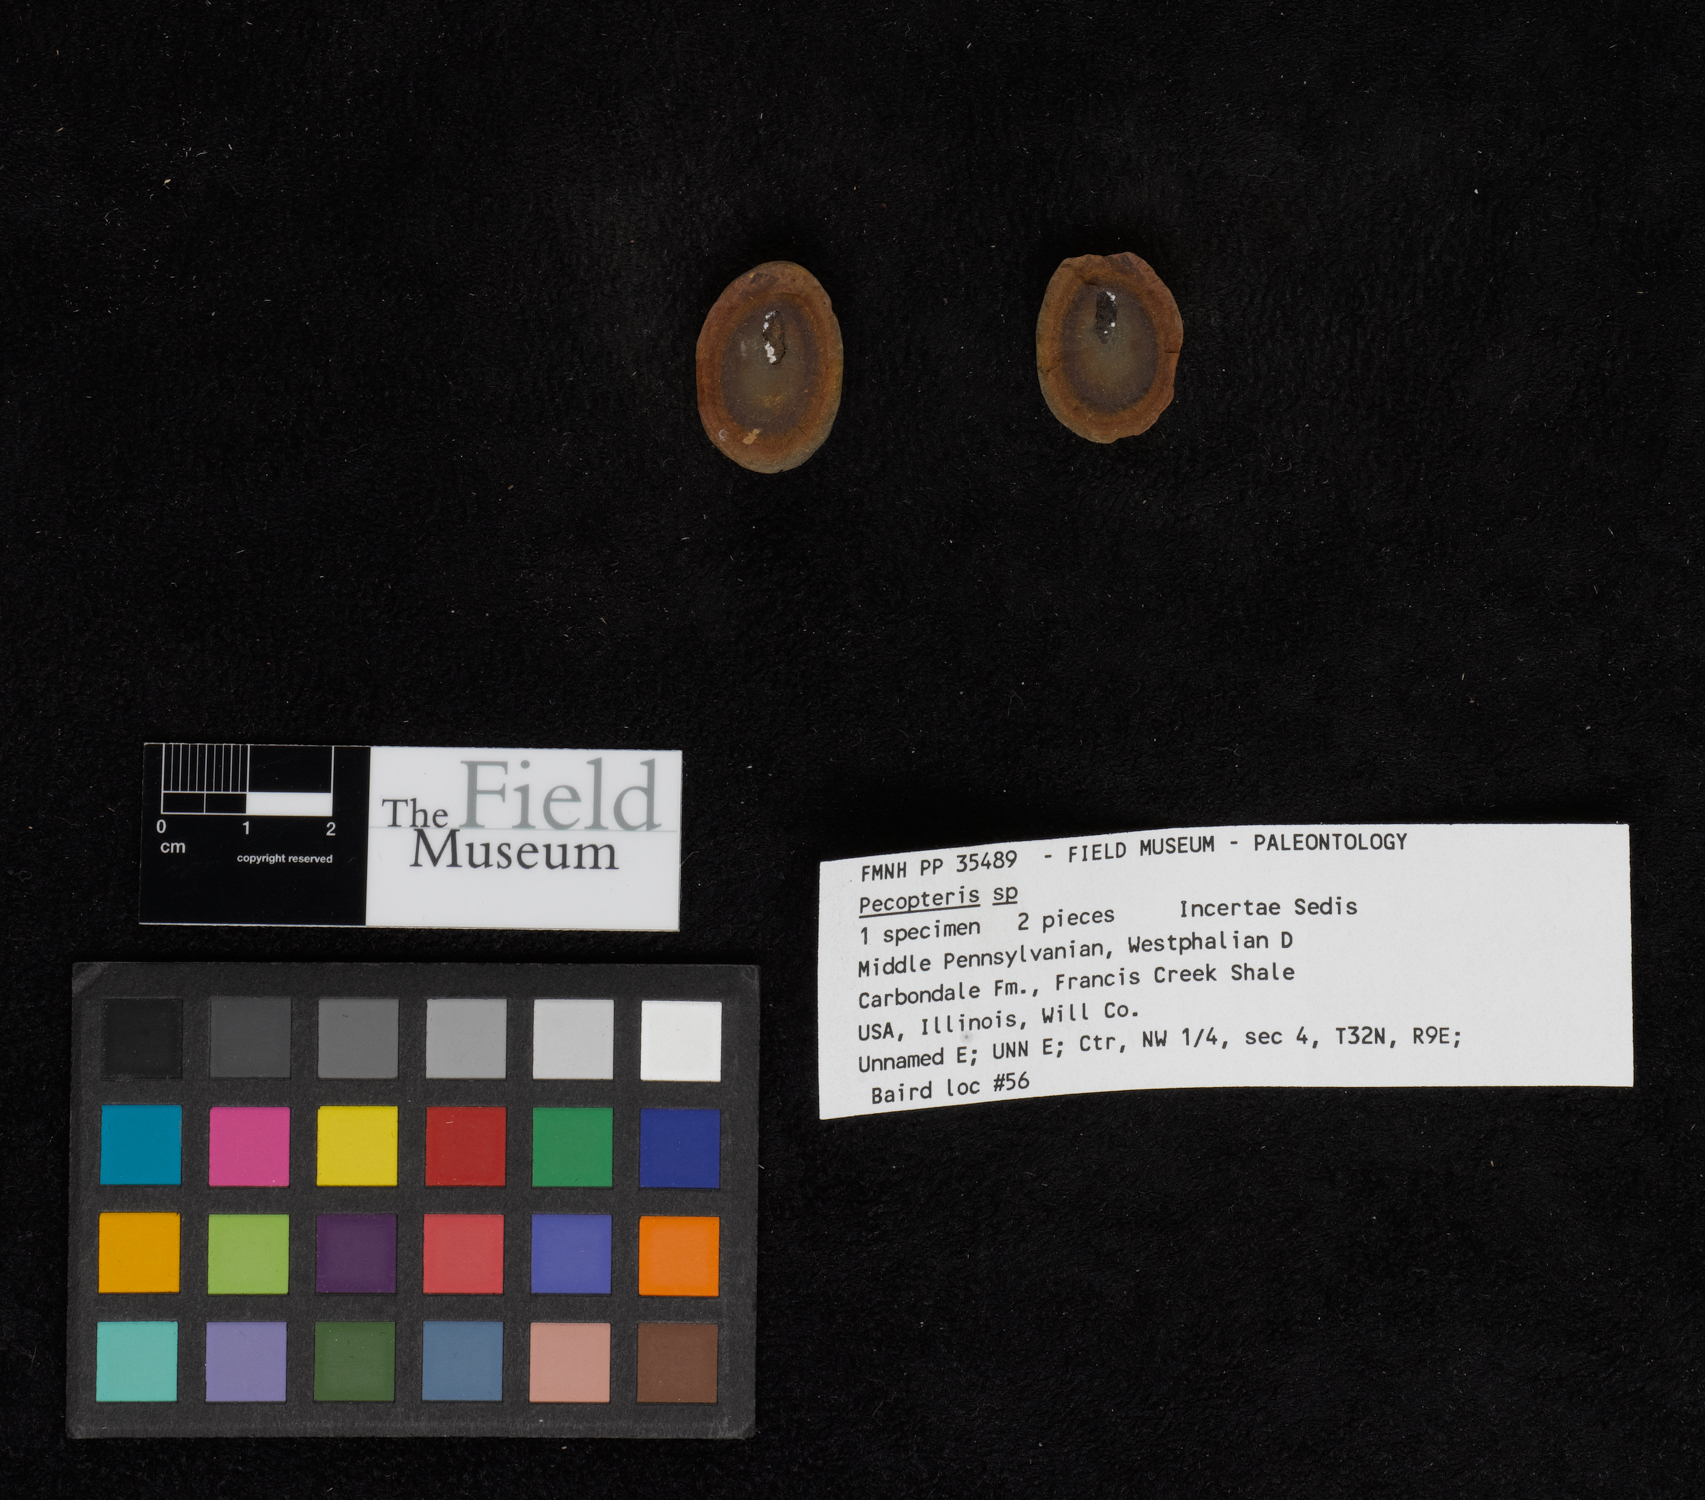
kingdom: Plantae
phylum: Tracheophyta
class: Polypodiopsida
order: Marattiales
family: Asterothecaceae
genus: Pecopteris
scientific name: Pecopteris
